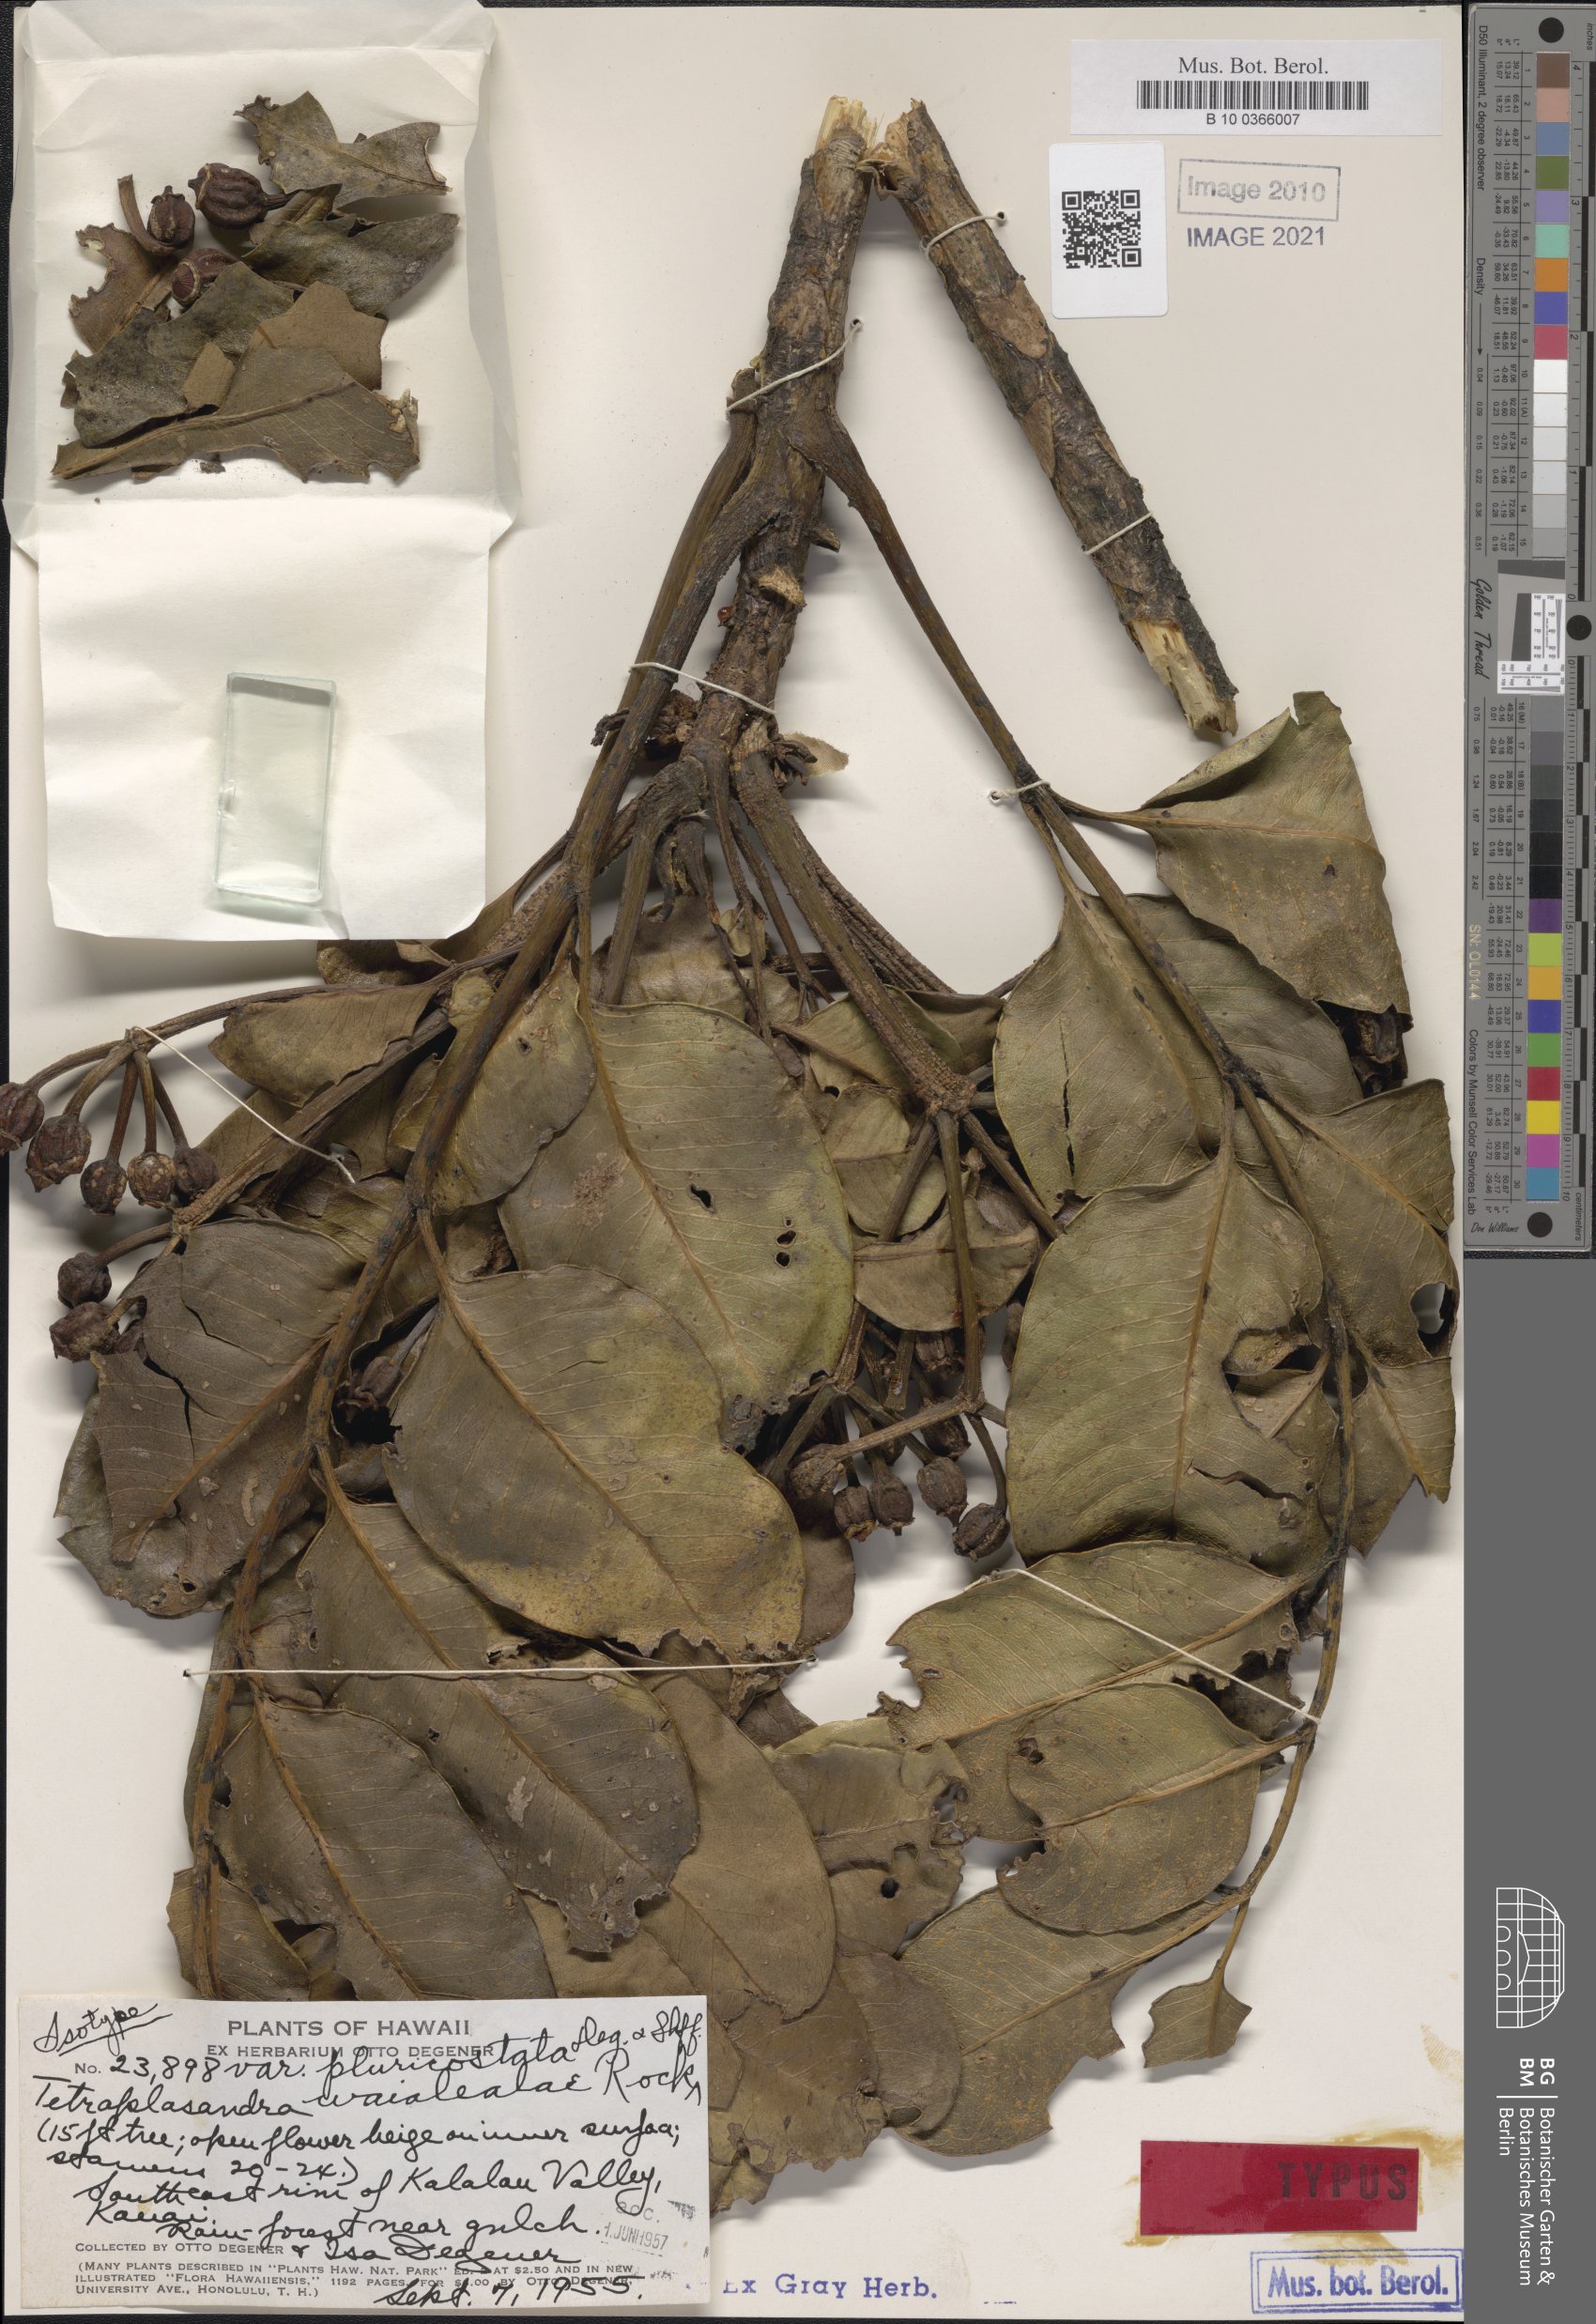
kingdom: Plantae
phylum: Tracheophyta
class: Magnoliopsida
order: Apiales
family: Araliaceae
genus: Polyscias
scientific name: Polyscias waialealae
